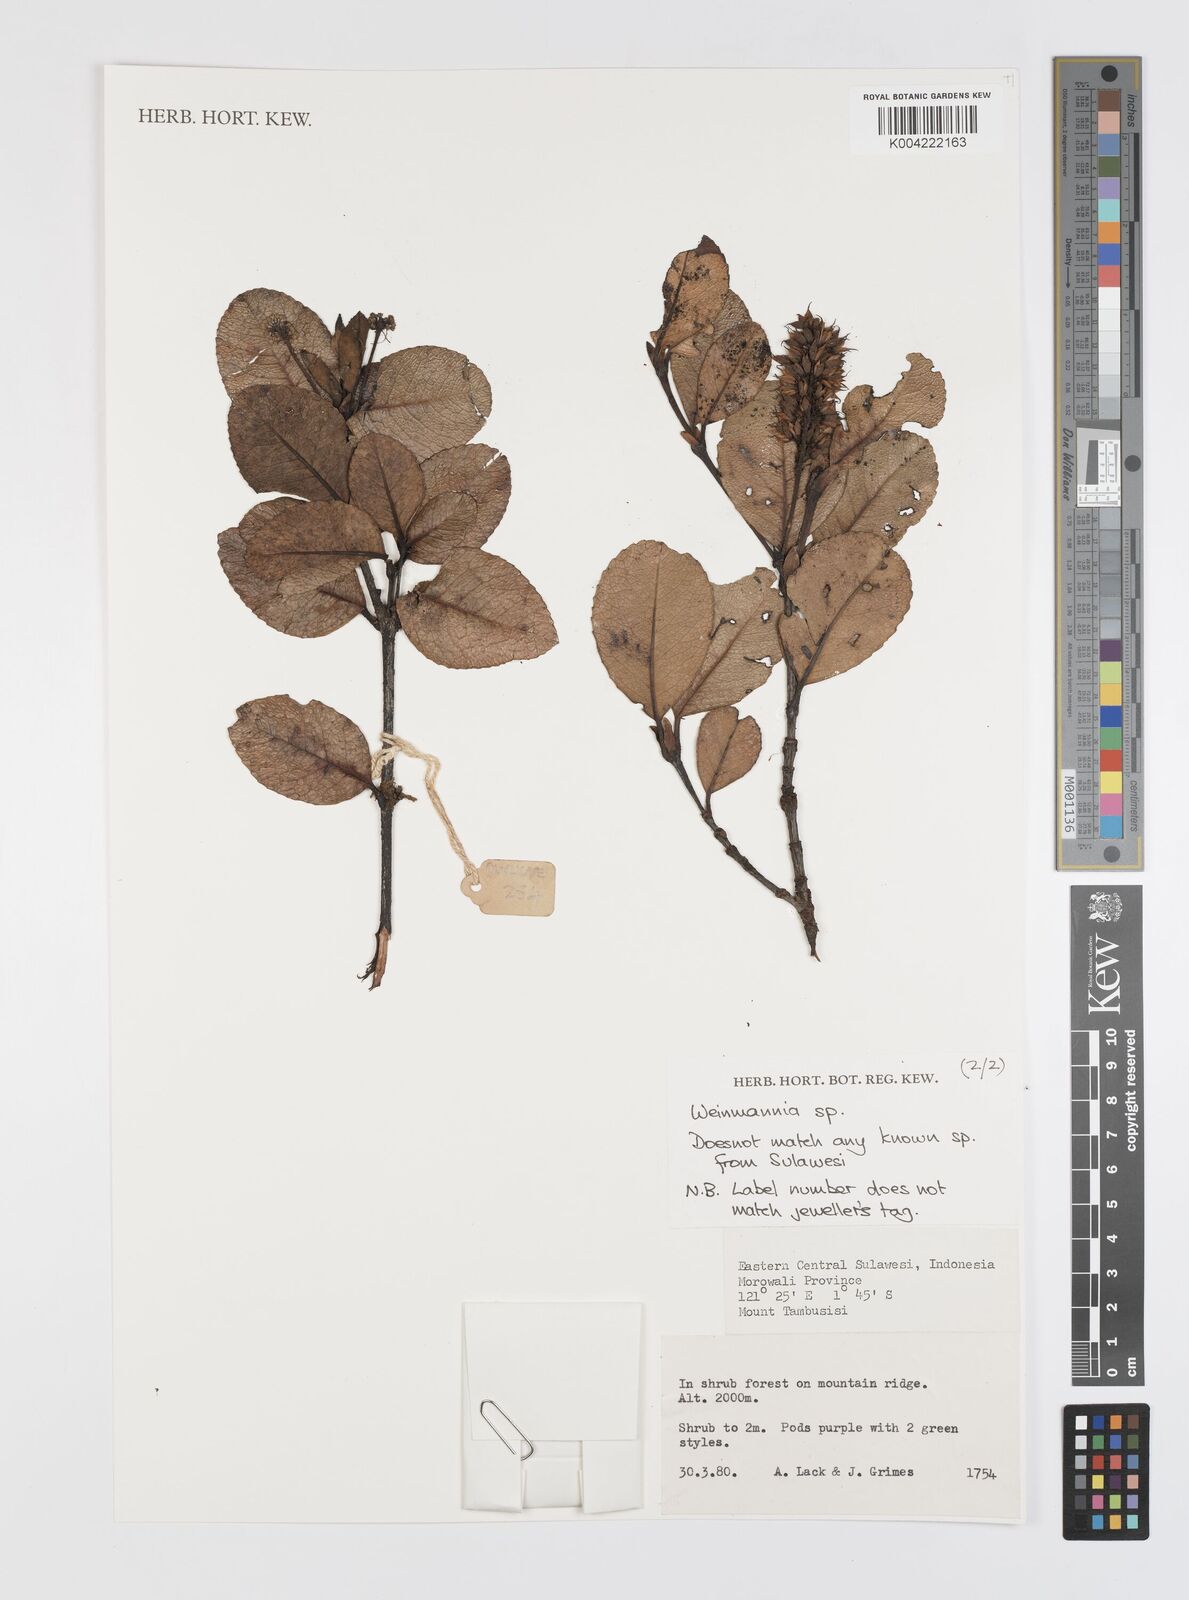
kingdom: Plantae
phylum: Tracheophyta
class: Magnoliopsida
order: Oxalidales
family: Cunoniaceae
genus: Weinmannia
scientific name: Weinmannia
